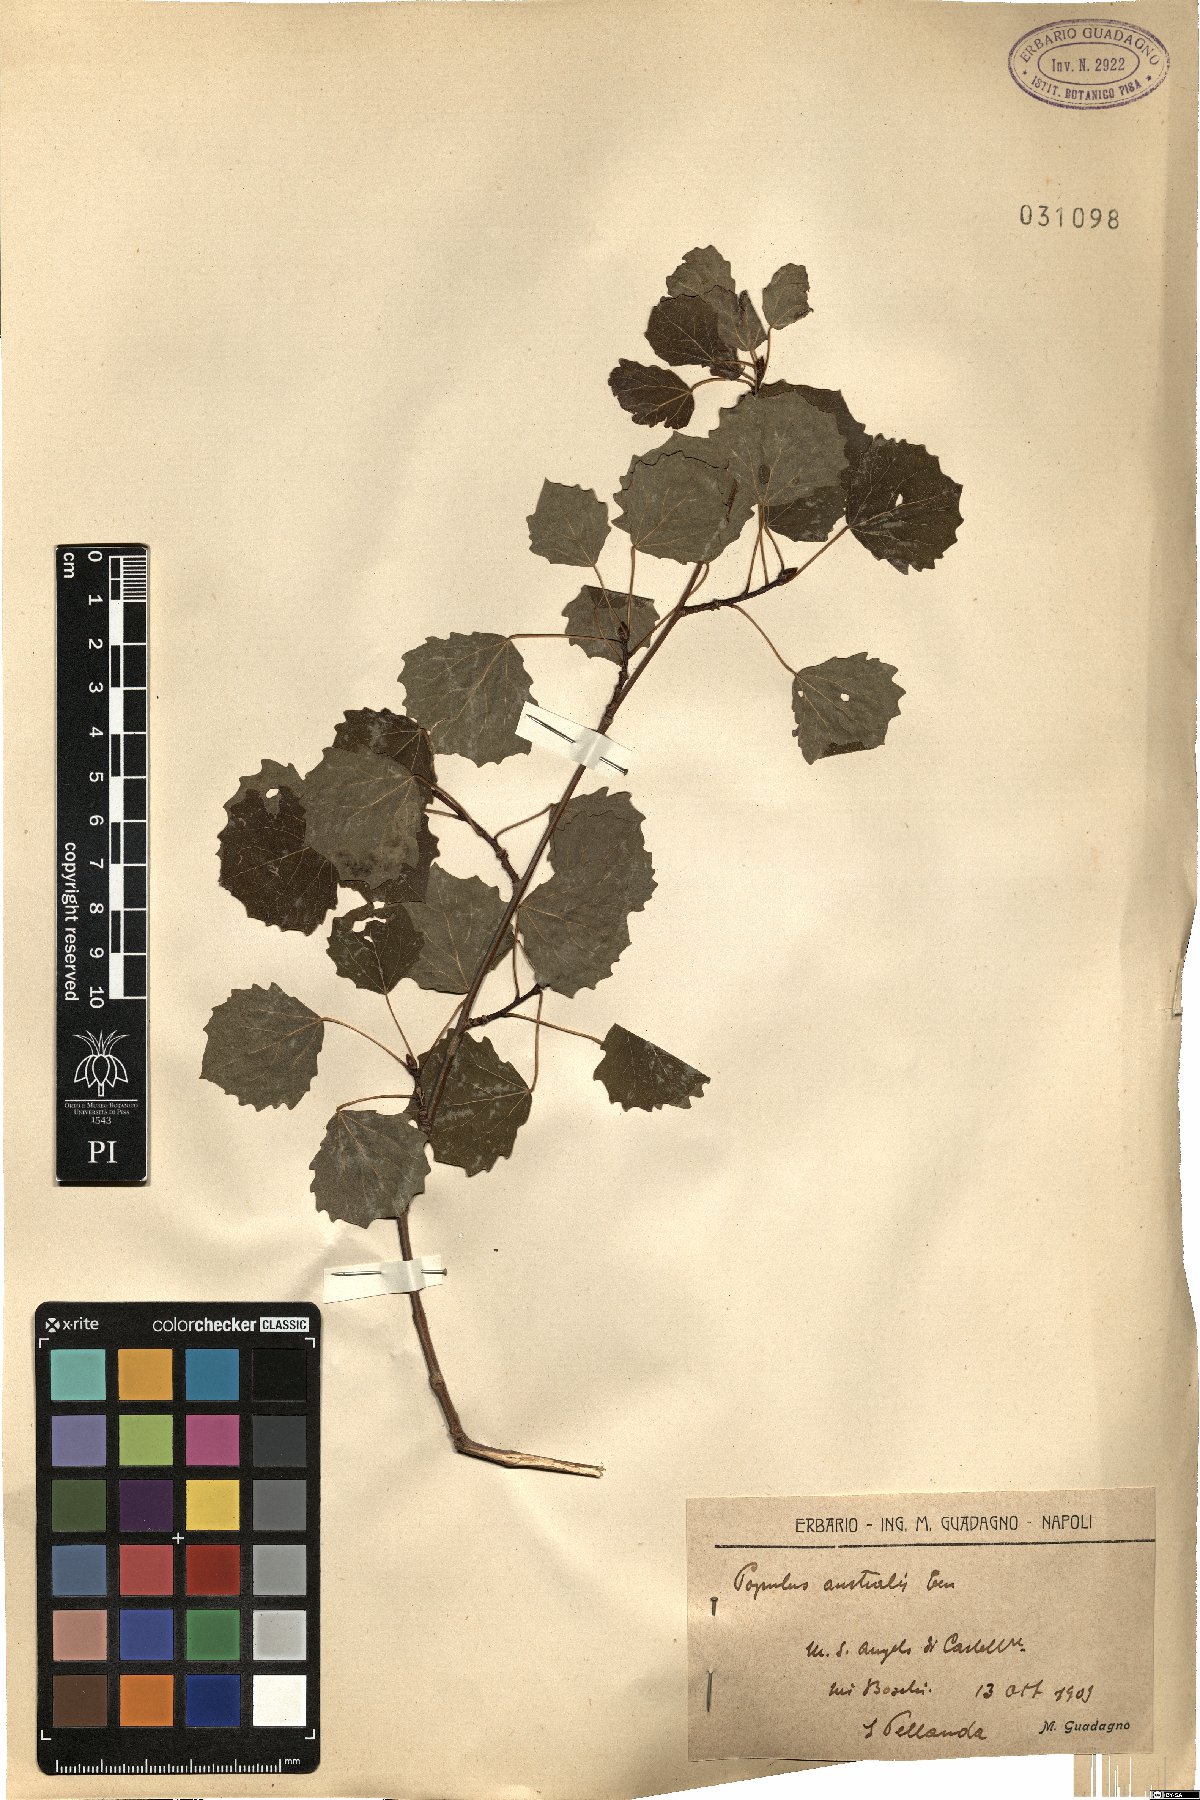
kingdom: Plantae
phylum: Tracheophyta
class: Magnoliopsida
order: Malpighiales
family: Salicaceae
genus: Populus
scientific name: Populus tremula
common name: European aspen
